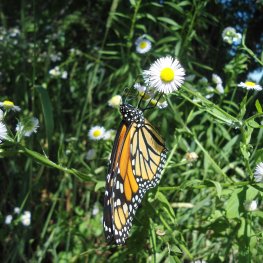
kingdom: Animalia
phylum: Arthropoda
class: Insecta
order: Lepidoptera
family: Nymphalidae
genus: Danaus
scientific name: Danaus plexippus
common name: Monarch
